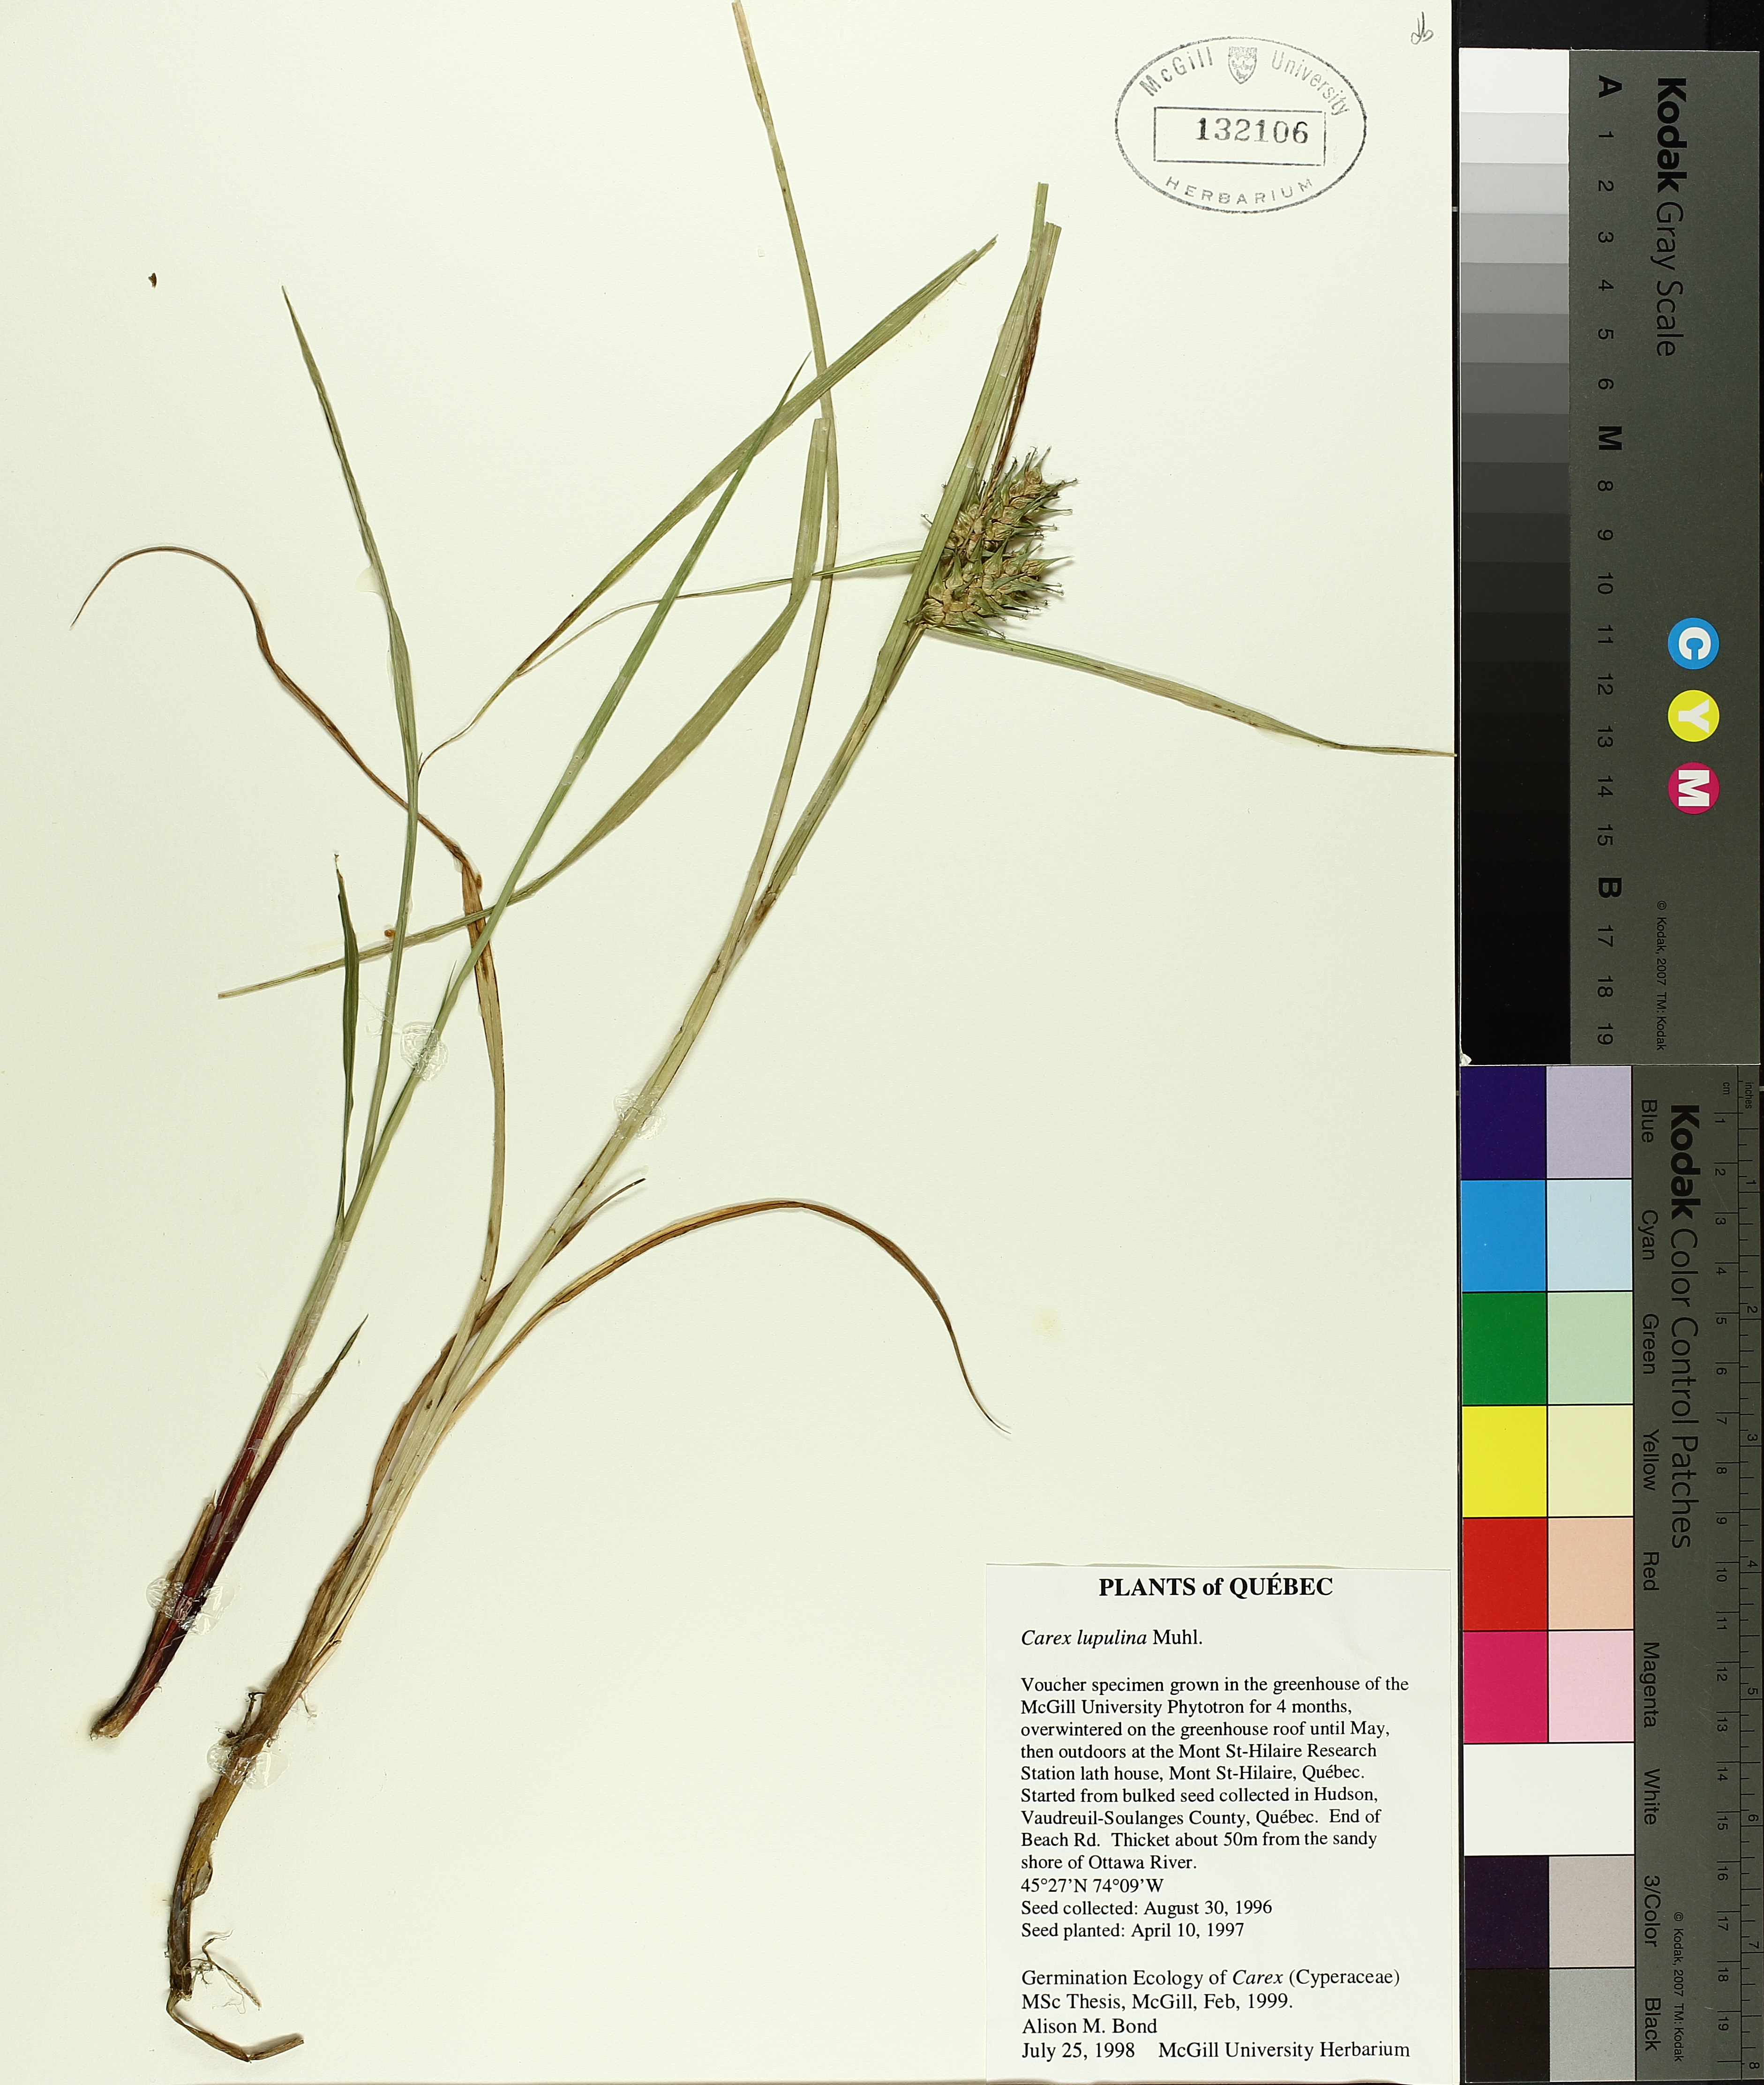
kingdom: Plantae
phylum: Tracheophyta
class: Liliopsida
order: Poales
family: Cyperaceae
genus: Carex
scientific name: Carex lupulina
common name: Hop sedge
